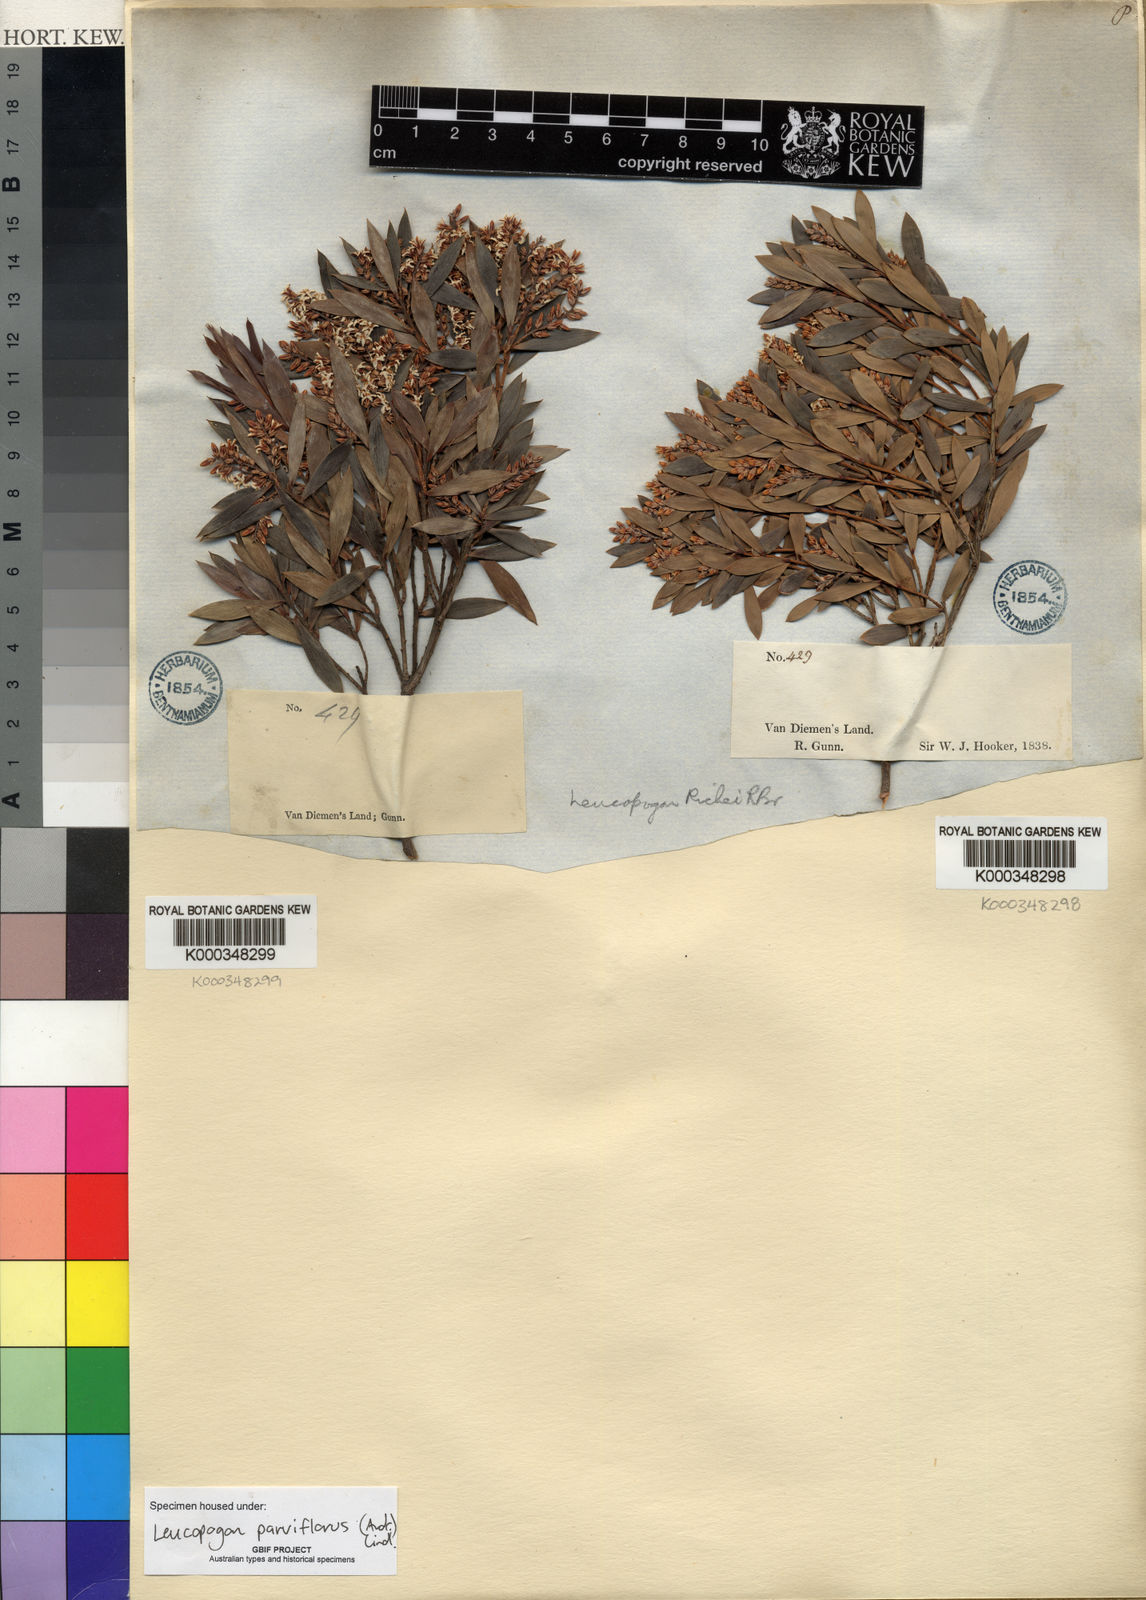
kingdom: Plantae
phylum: Tracheophyta
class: Magnoliopsida
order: Ericales
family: Ericaceae
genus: Leptecophylla
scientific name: Leptecophylla parvifolia
